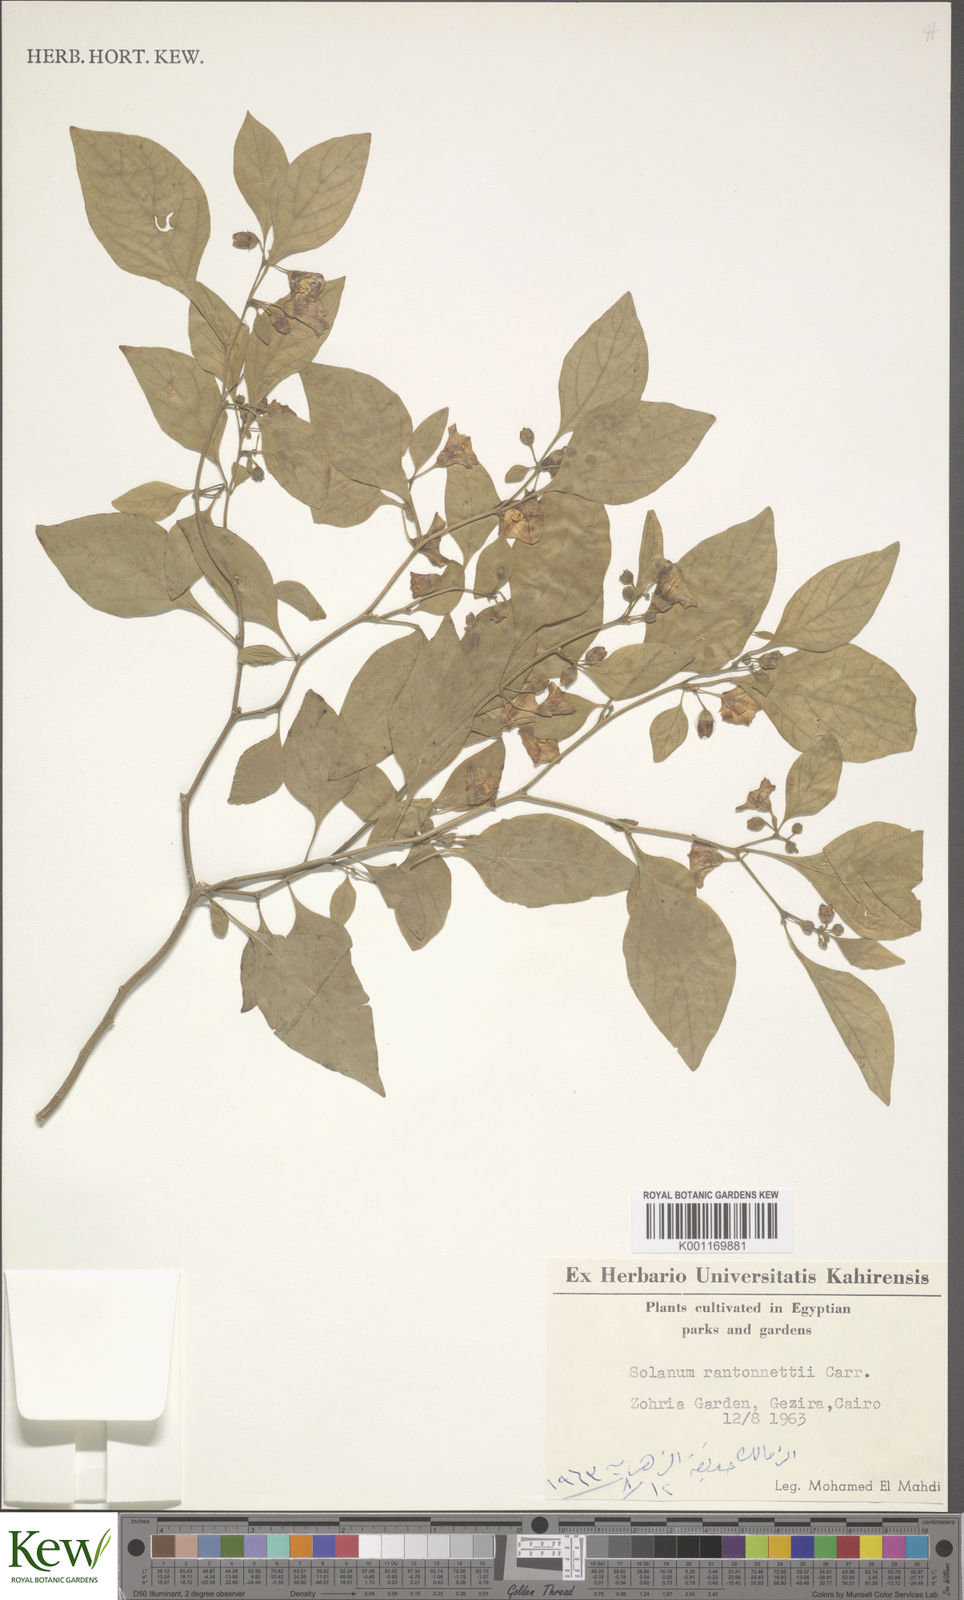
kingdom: Plantae
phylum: Tracheophyta
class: Magnoliopsida
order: Solanales
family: Solanaceae
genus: Solanum
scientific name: Solanum
